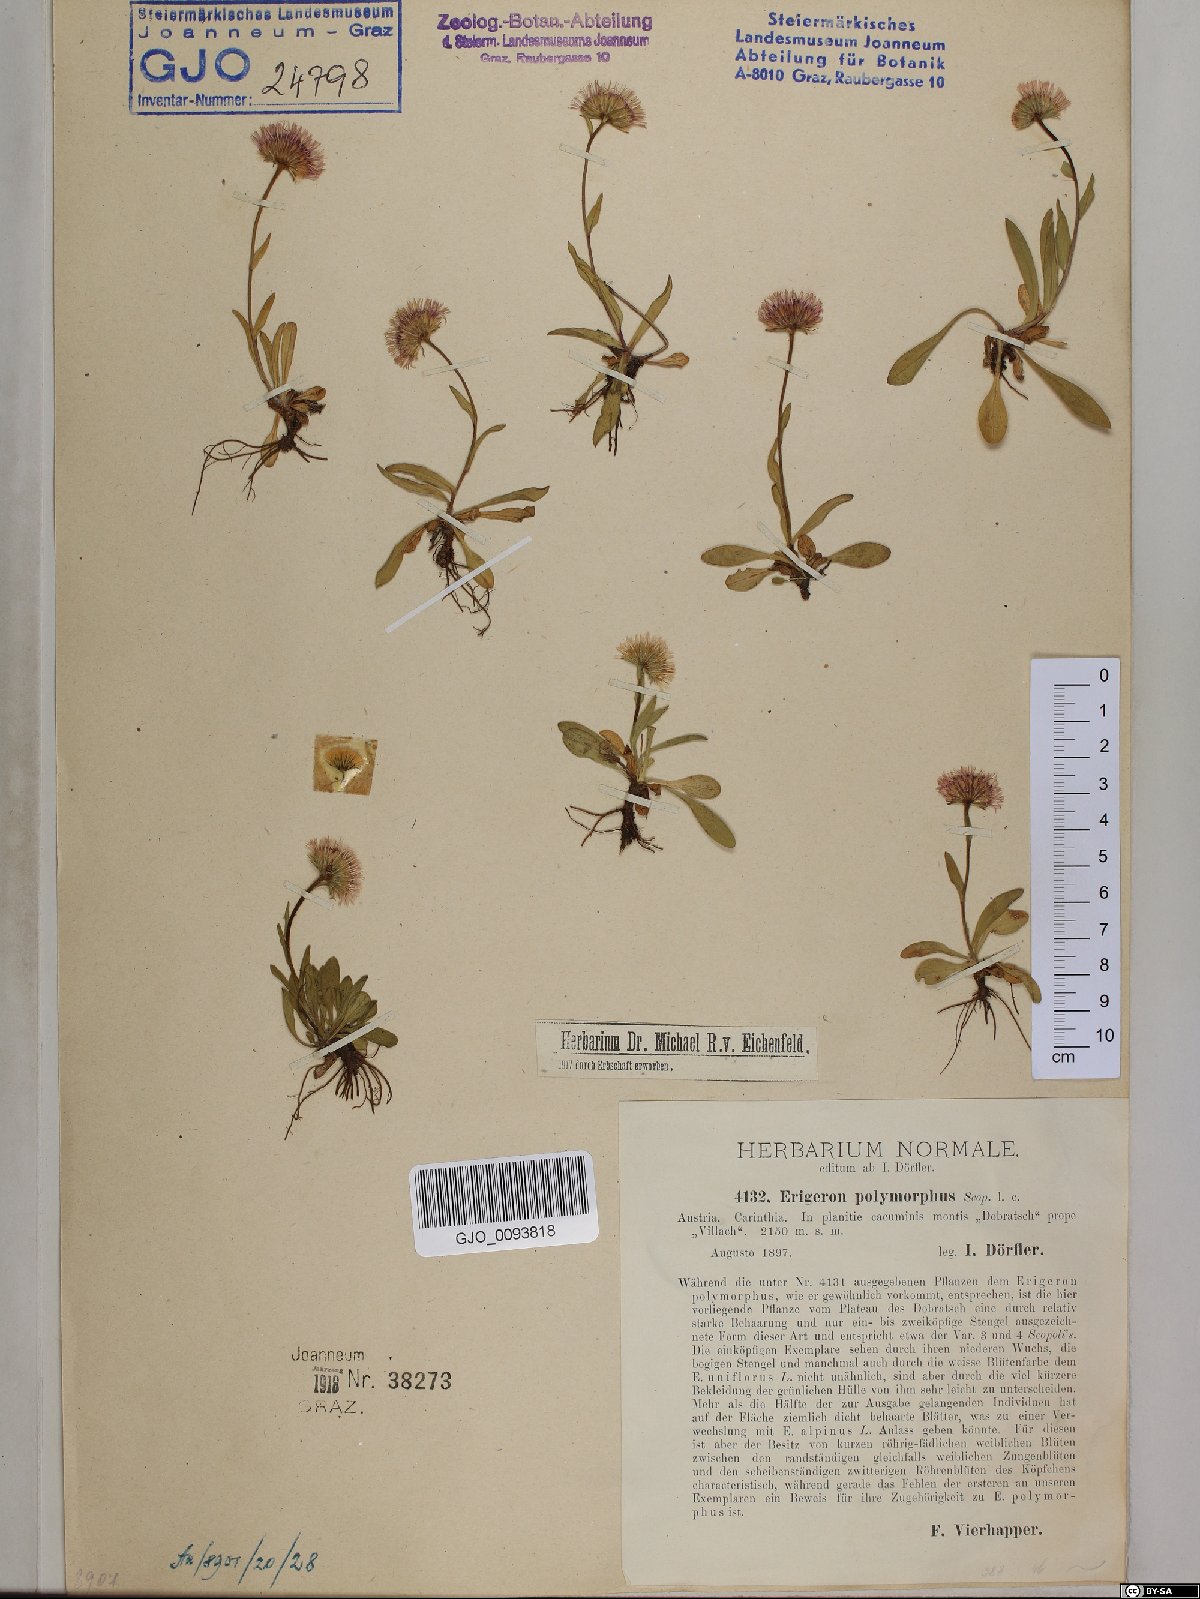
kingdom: Plantae
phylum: Tracheophyta
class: Magnoliopsida
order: Asterales
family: Asteraceae
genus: Erigeron
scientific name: Erigeron alpinus
